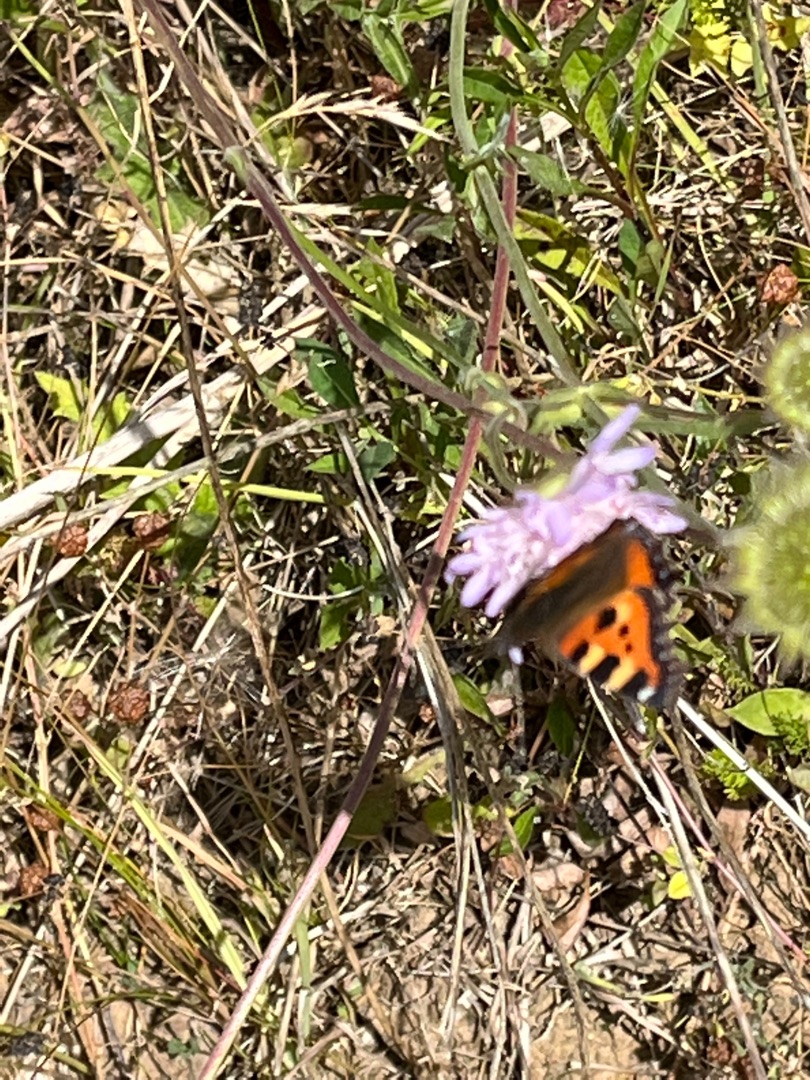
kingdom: Animalia
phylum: Arthropoda
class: Insecta
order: Lepidoptera
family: Nymphalidae
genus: Aglais
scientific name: Aglais urticae
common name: Nældens takvinge
